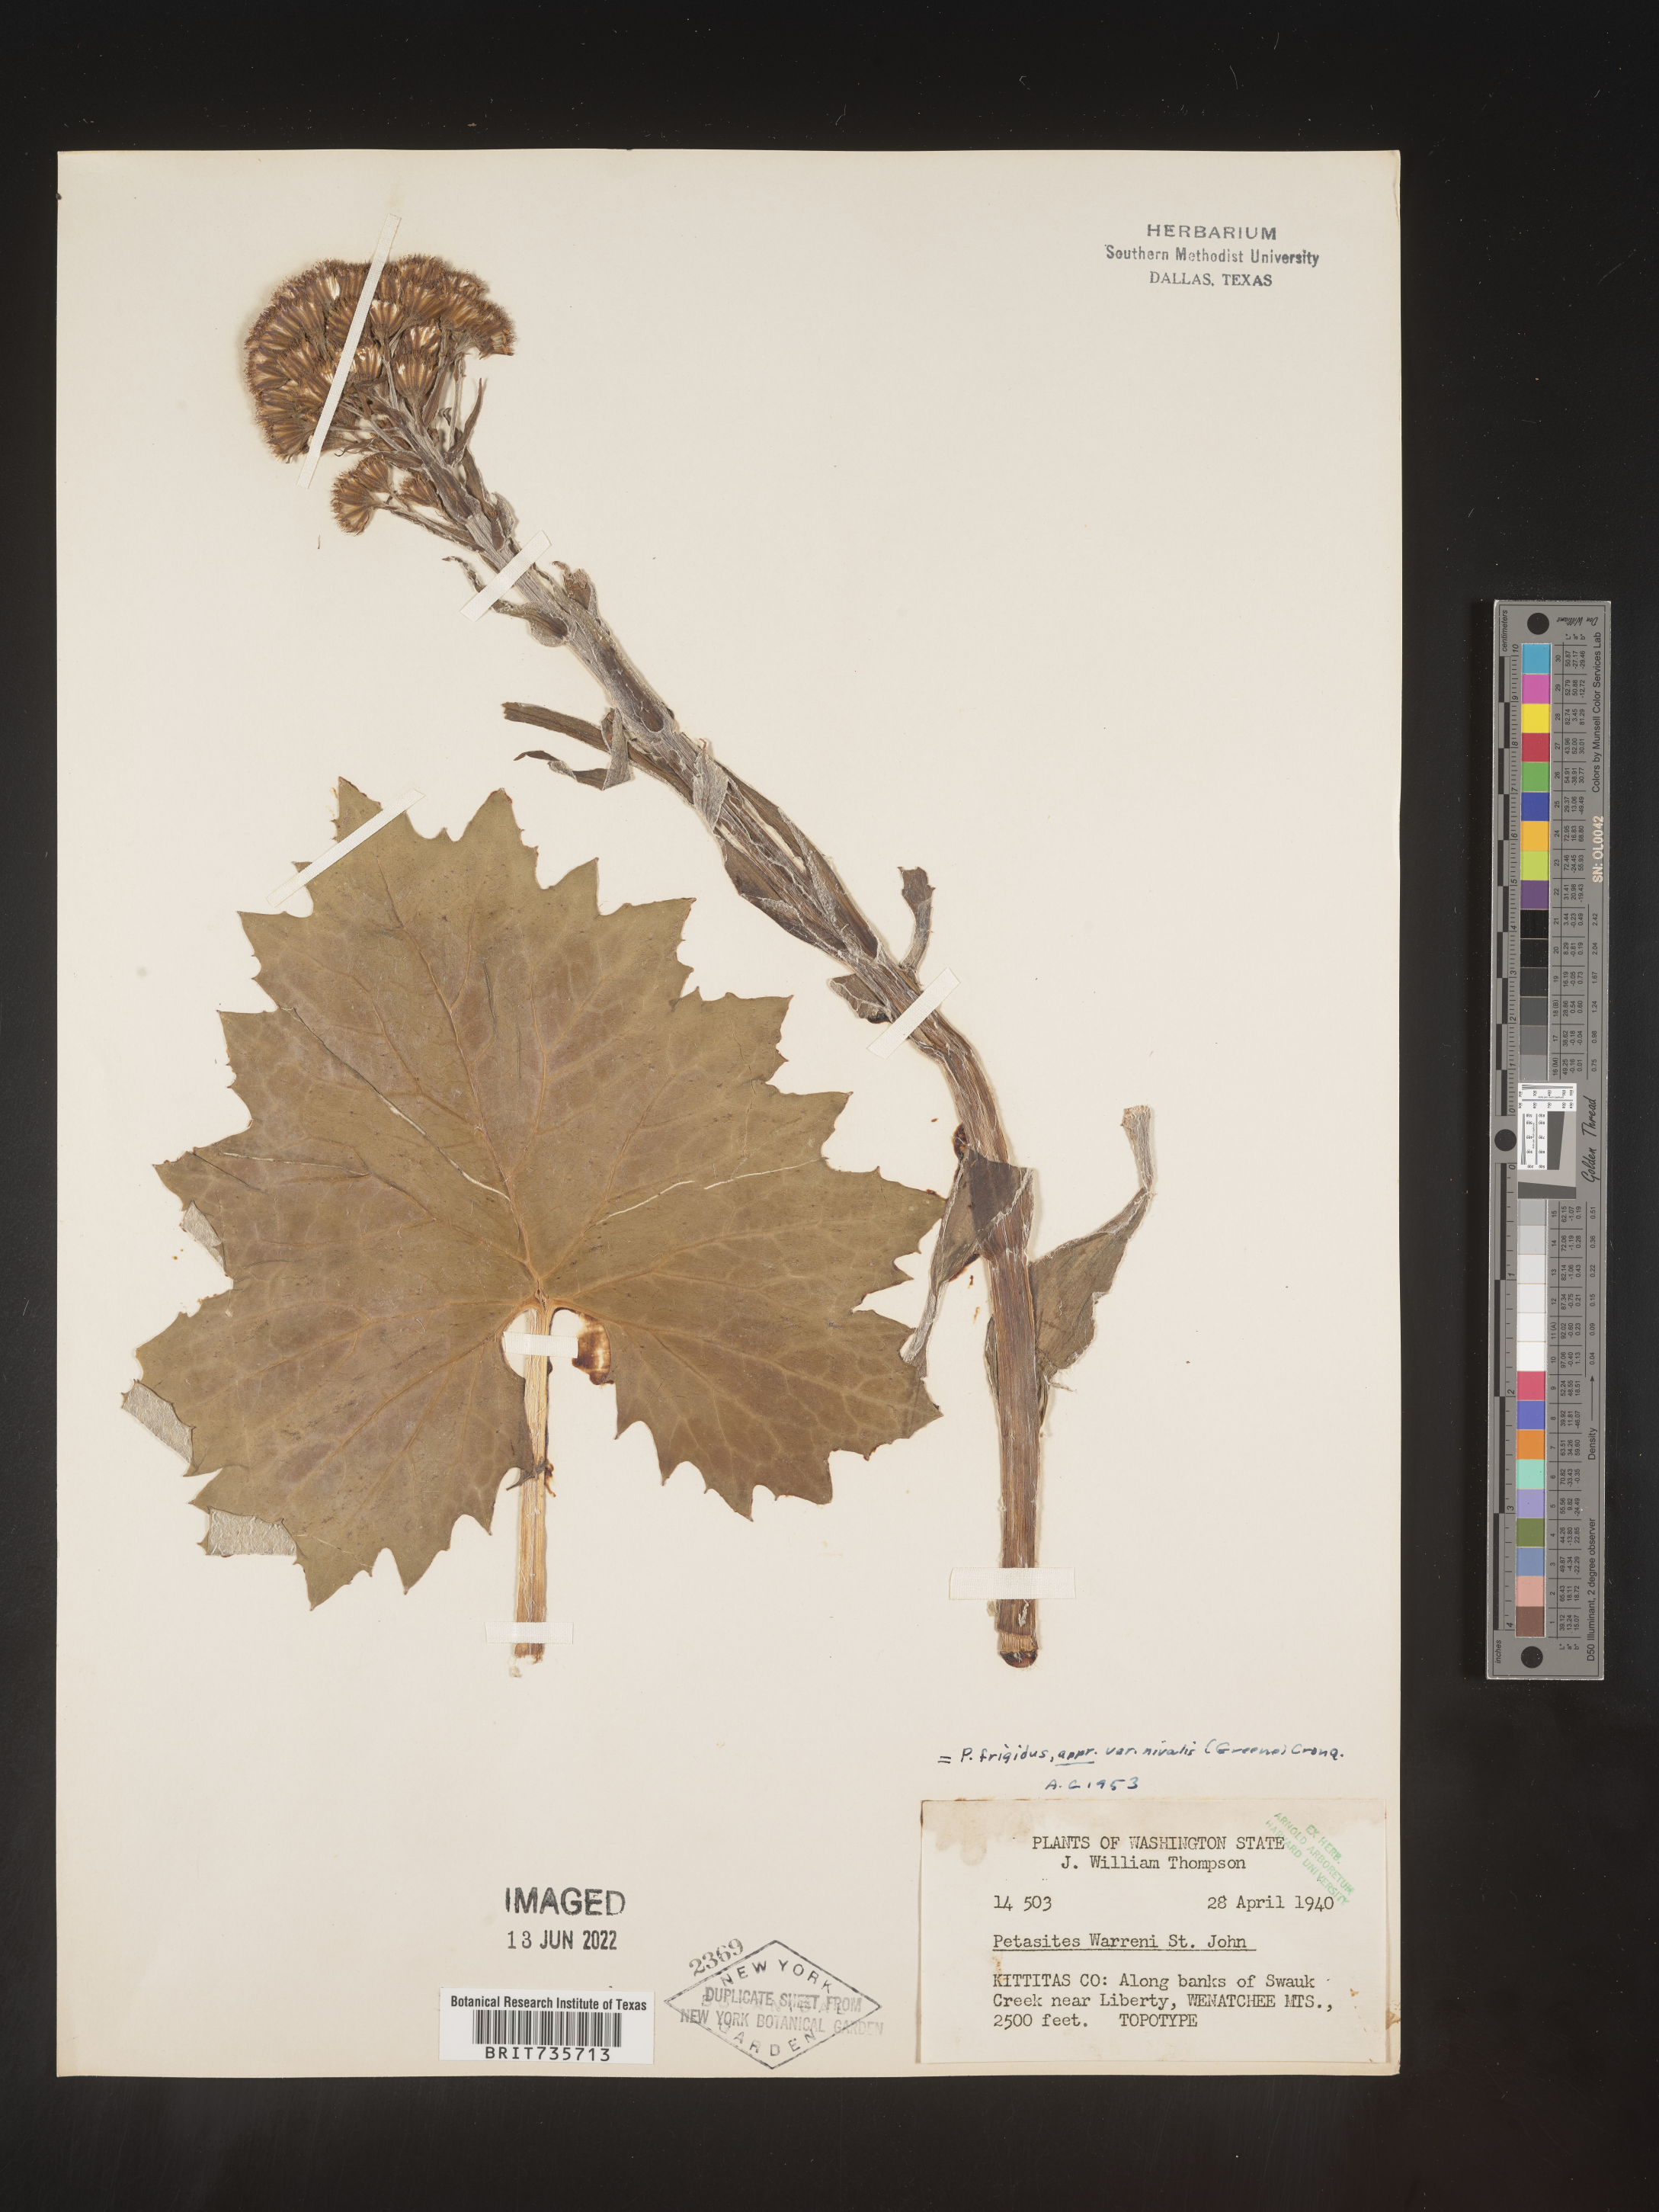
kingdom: Plantae
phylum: Tracheophyta
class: Magnoliopsida
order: Asterales
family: Asteraceae
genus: Petasites
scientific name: Petasites frigidus
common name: Arctic butterbur
